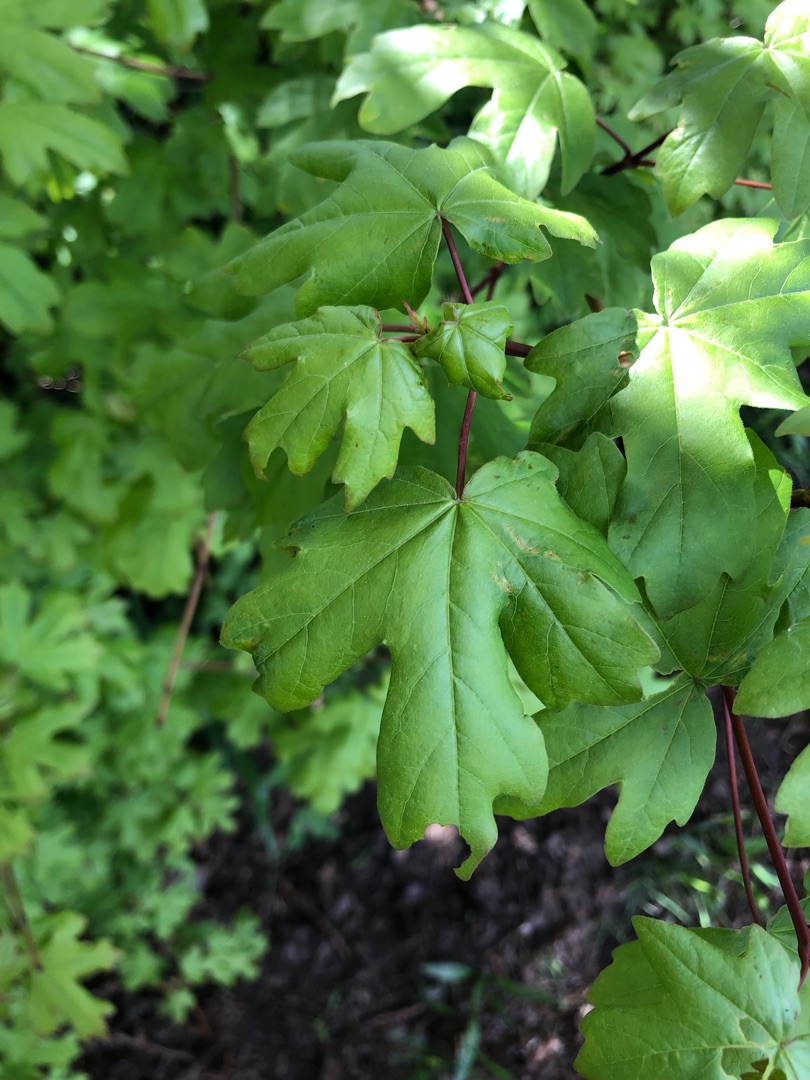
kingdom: Plantae
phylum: Tracheophyta
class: Magnoliopsida
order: Sapindales
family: Sapindaceae
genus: Acer
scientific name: Acer campestre
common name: Navr
